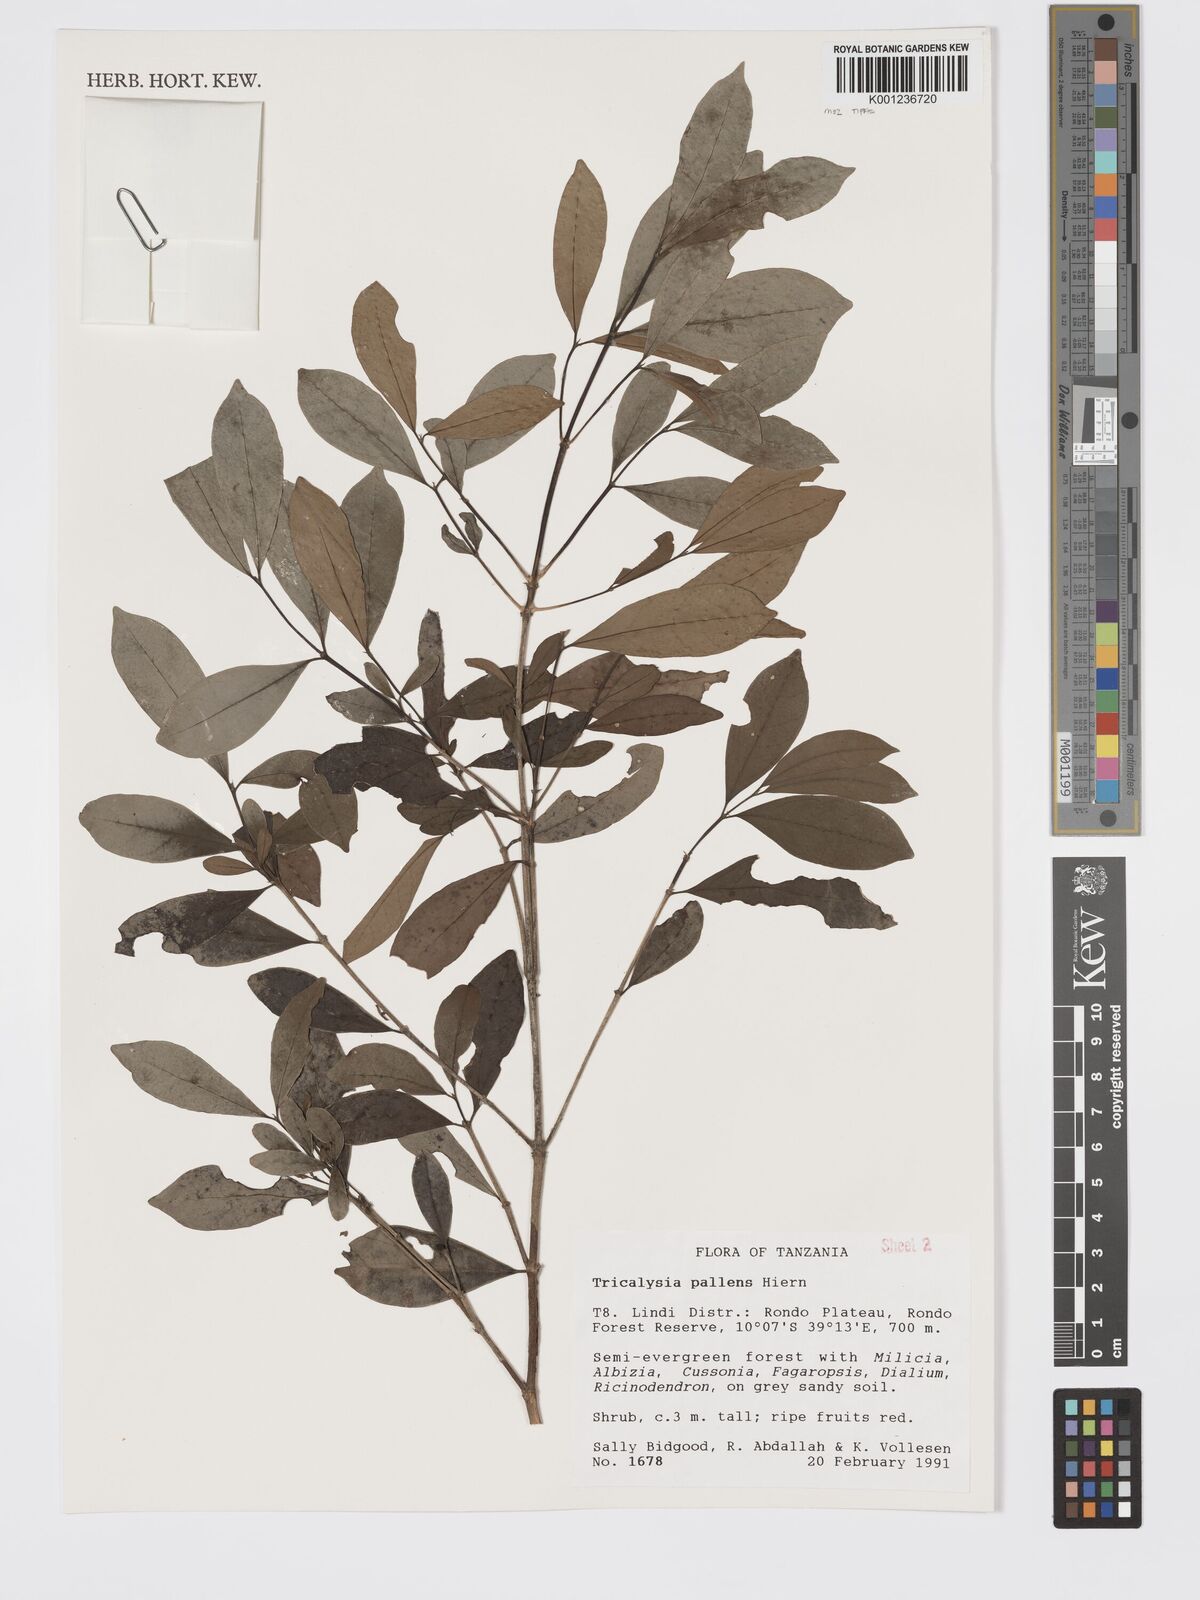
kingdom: Plantae
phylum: Tracheophyta
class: Magnoliopsida
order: Gentianales
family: Rubiaceae
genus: Tricalysia
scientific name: Tricalysia pallens
